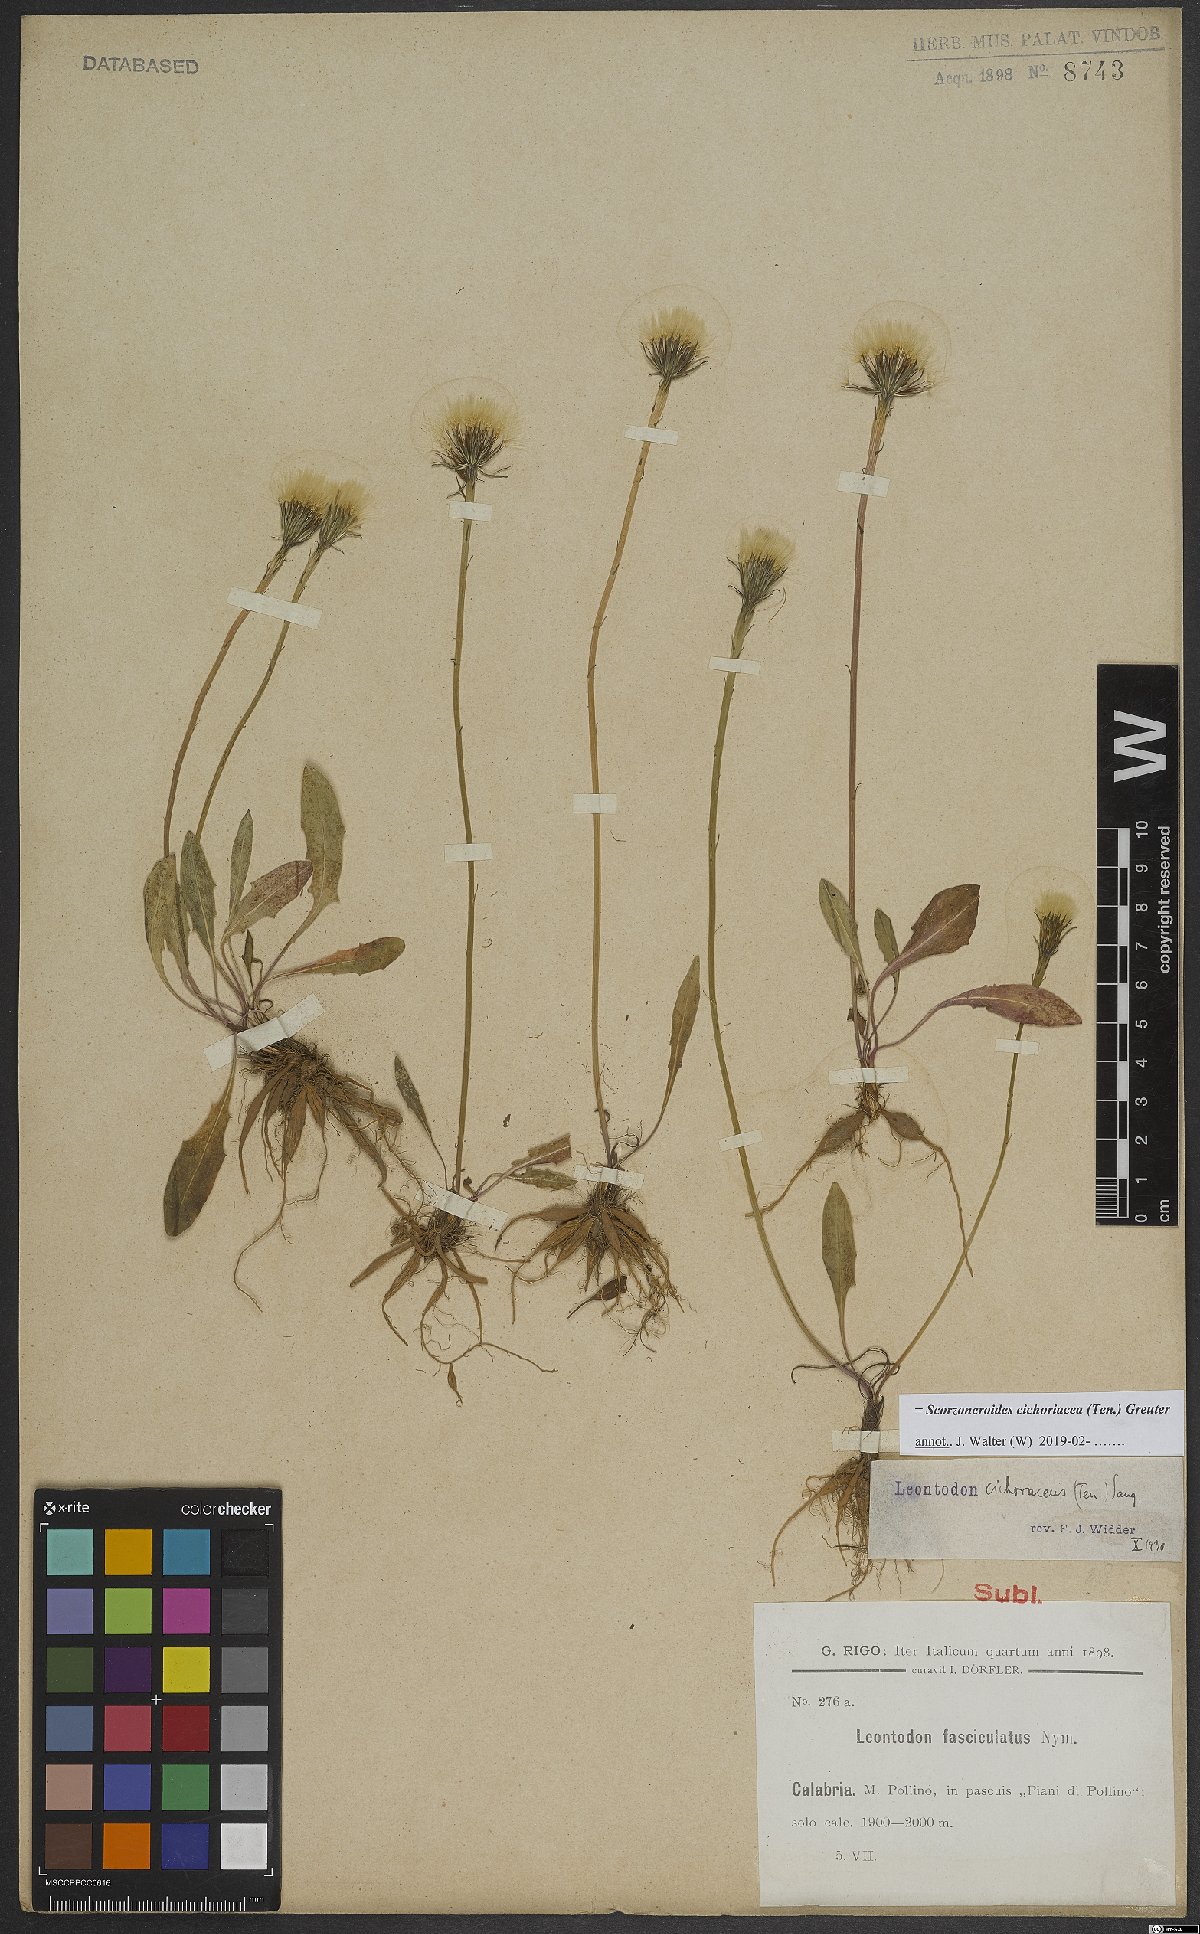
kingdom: Plantae
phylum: Tracheophyta
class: Magnoliopsida
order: Asterales
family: Asteraceae
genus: Scorzoneroides
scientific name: Scorzoneroides cichoriacea
